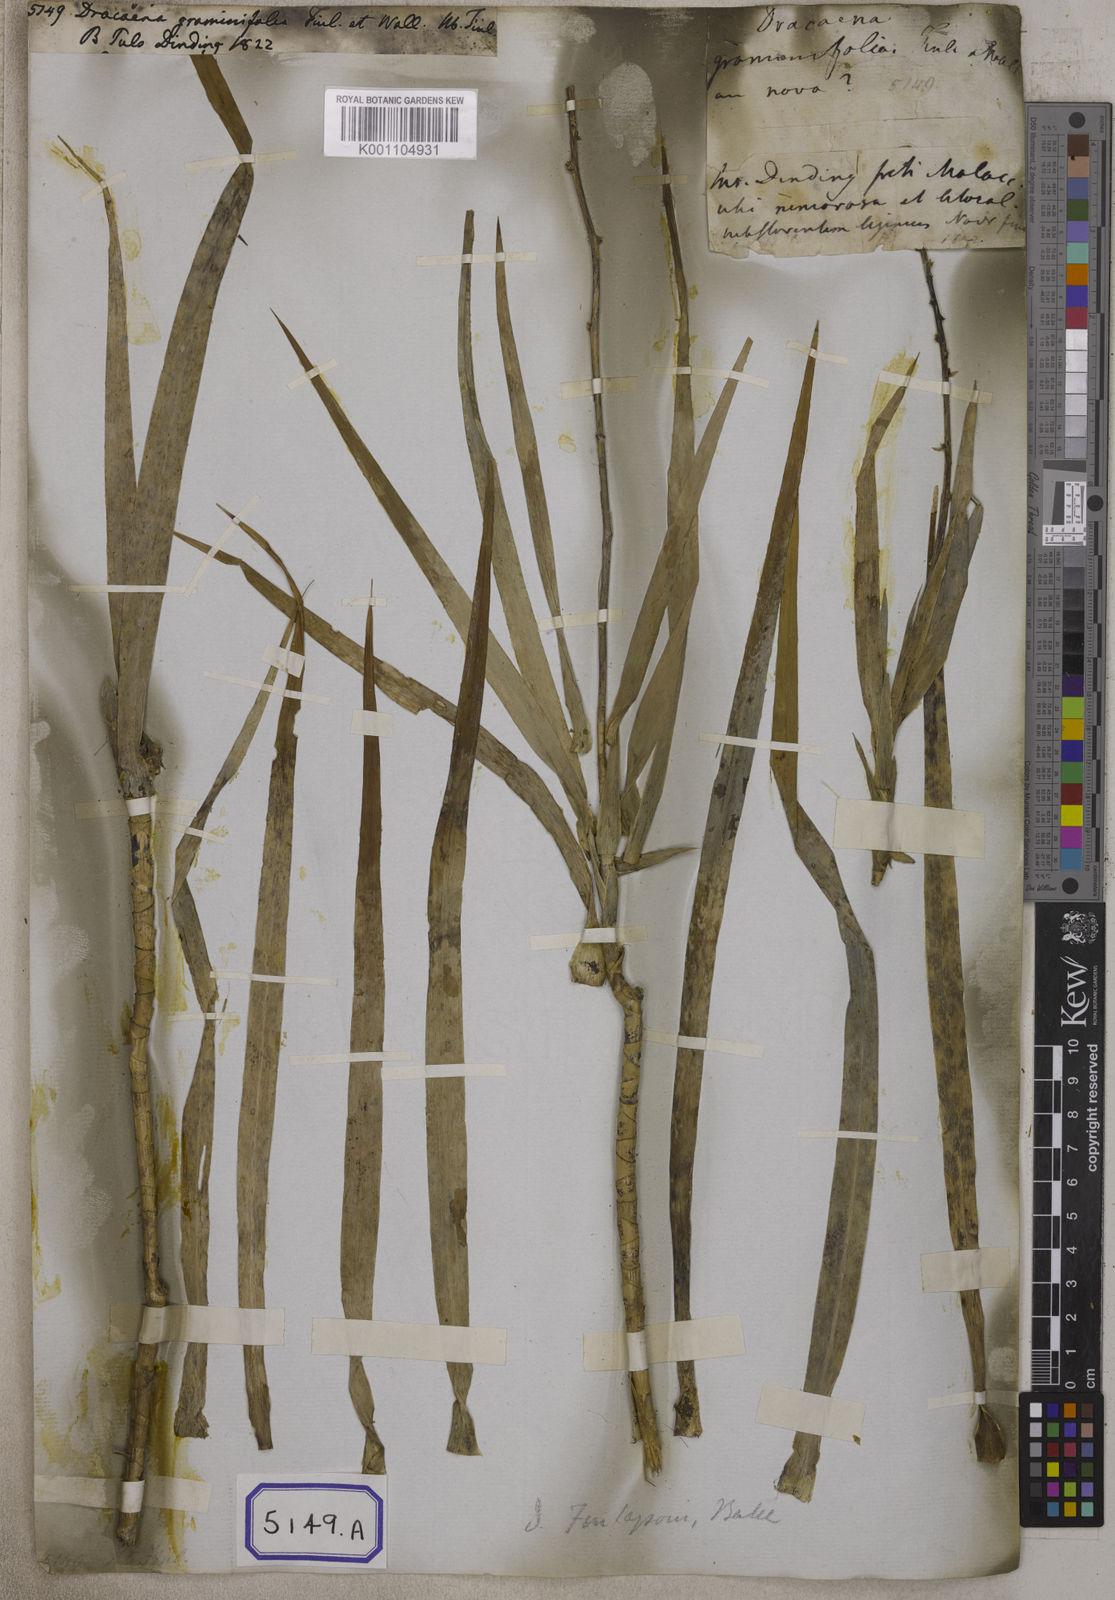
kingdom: Plantae
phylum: Tracheophyta
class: Liliopsida
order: Asparagales
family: Asparagaceae
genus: Dracaena
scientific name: Dracaena
